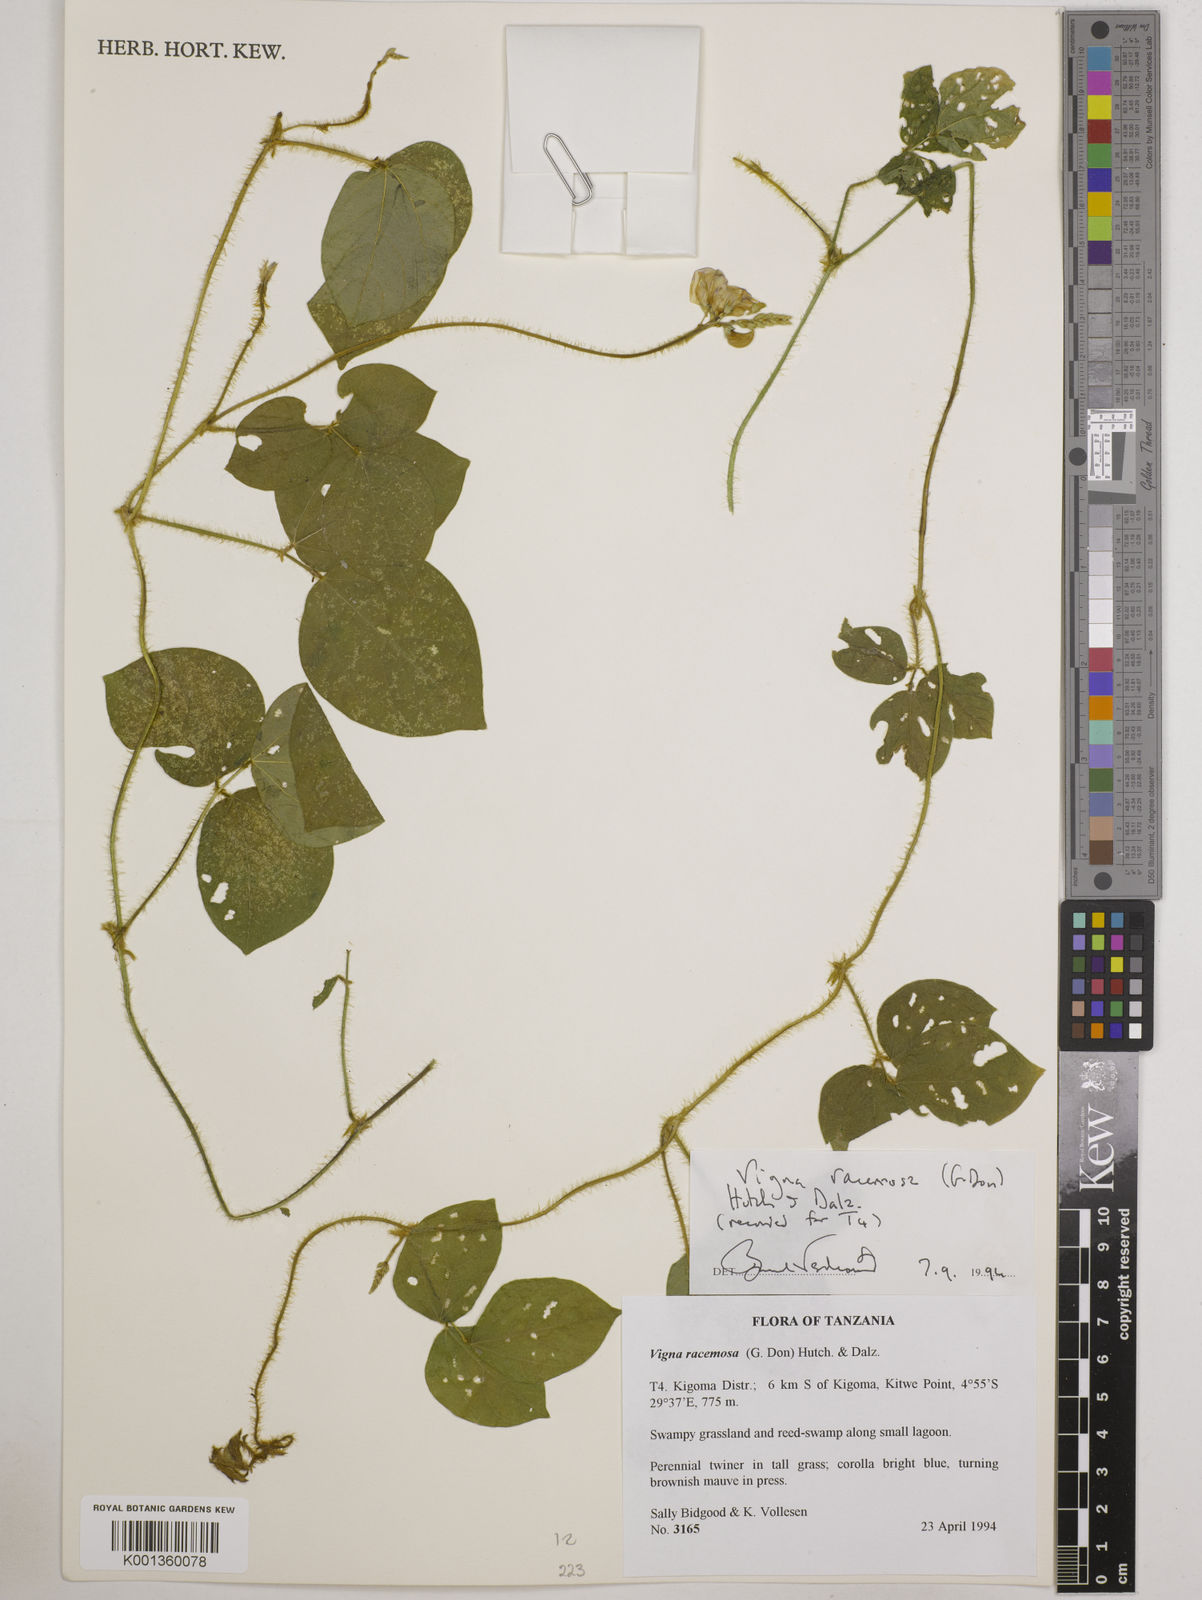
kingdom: Plantae
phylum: Tracheophyta
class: Magnoliopsida
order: Fabales
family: Fabaceae
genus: Vigna
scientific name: Vigna racemosa
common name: Beans not eaten
